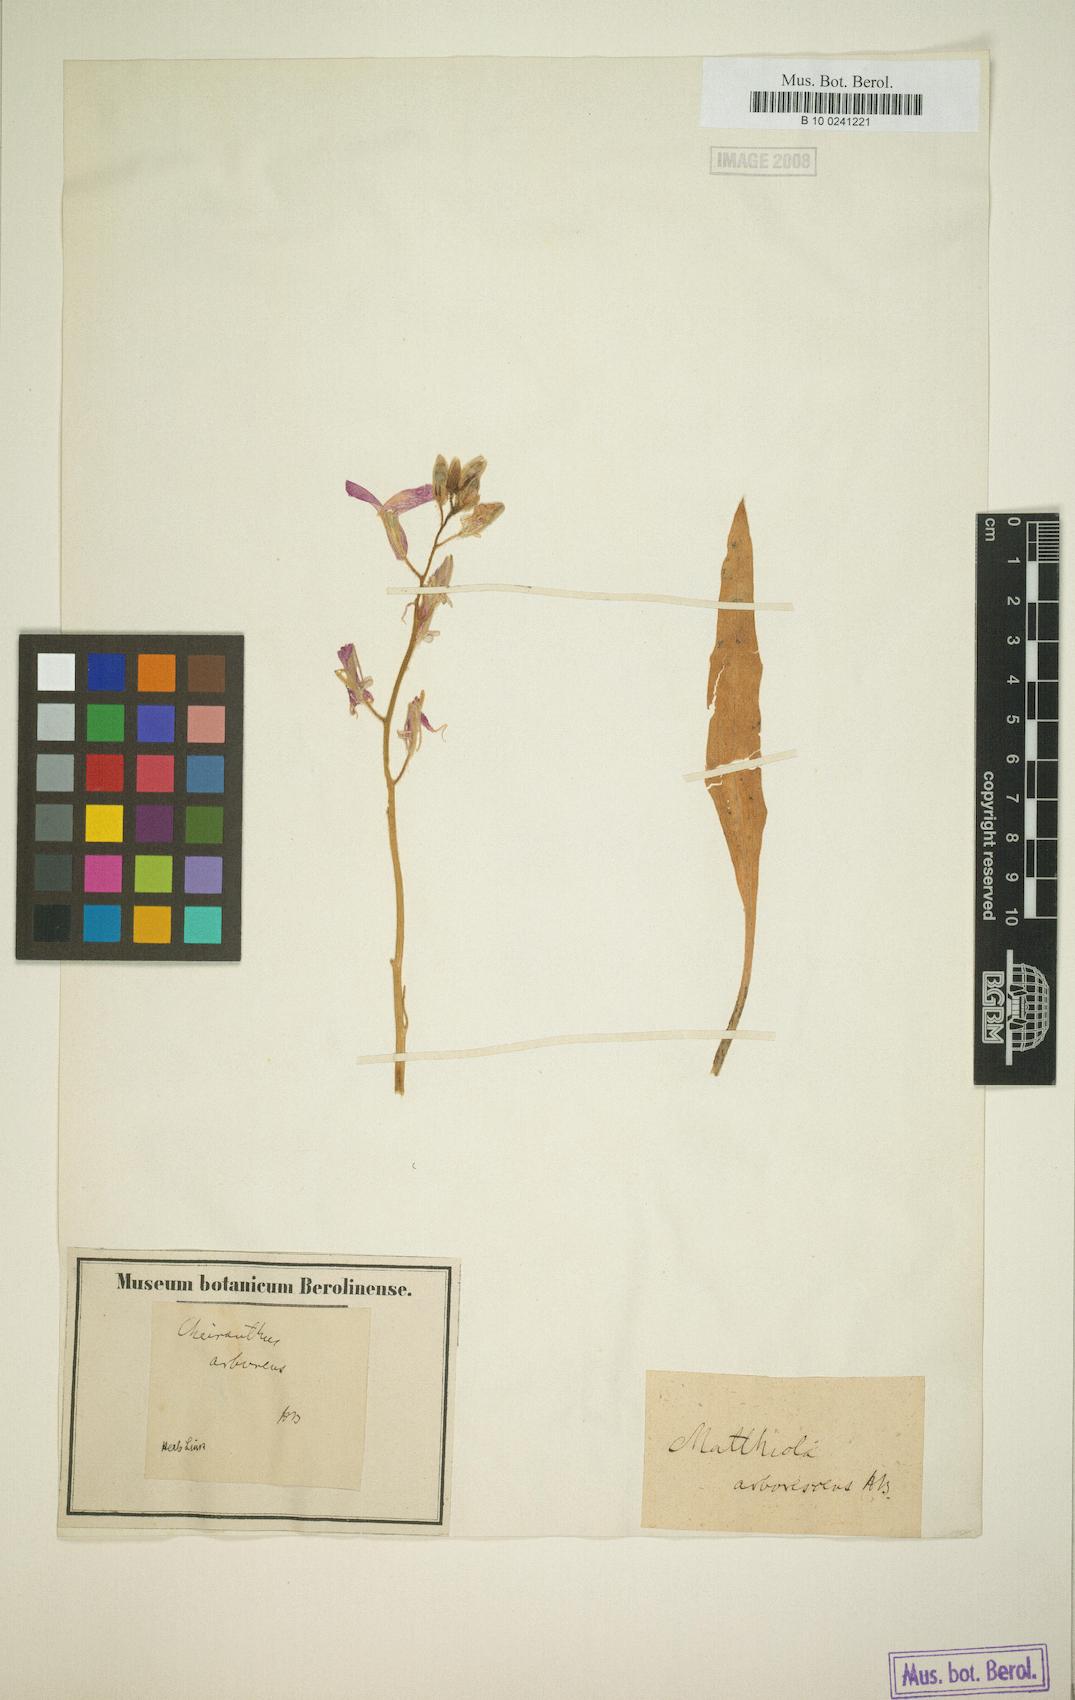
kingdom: Plantae
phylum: Tracheophyta
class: Magnoliopsida
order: Brassicales
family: Brassicaceae
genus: Matthiola
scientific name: Matthiola incana
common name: Hoary stock
